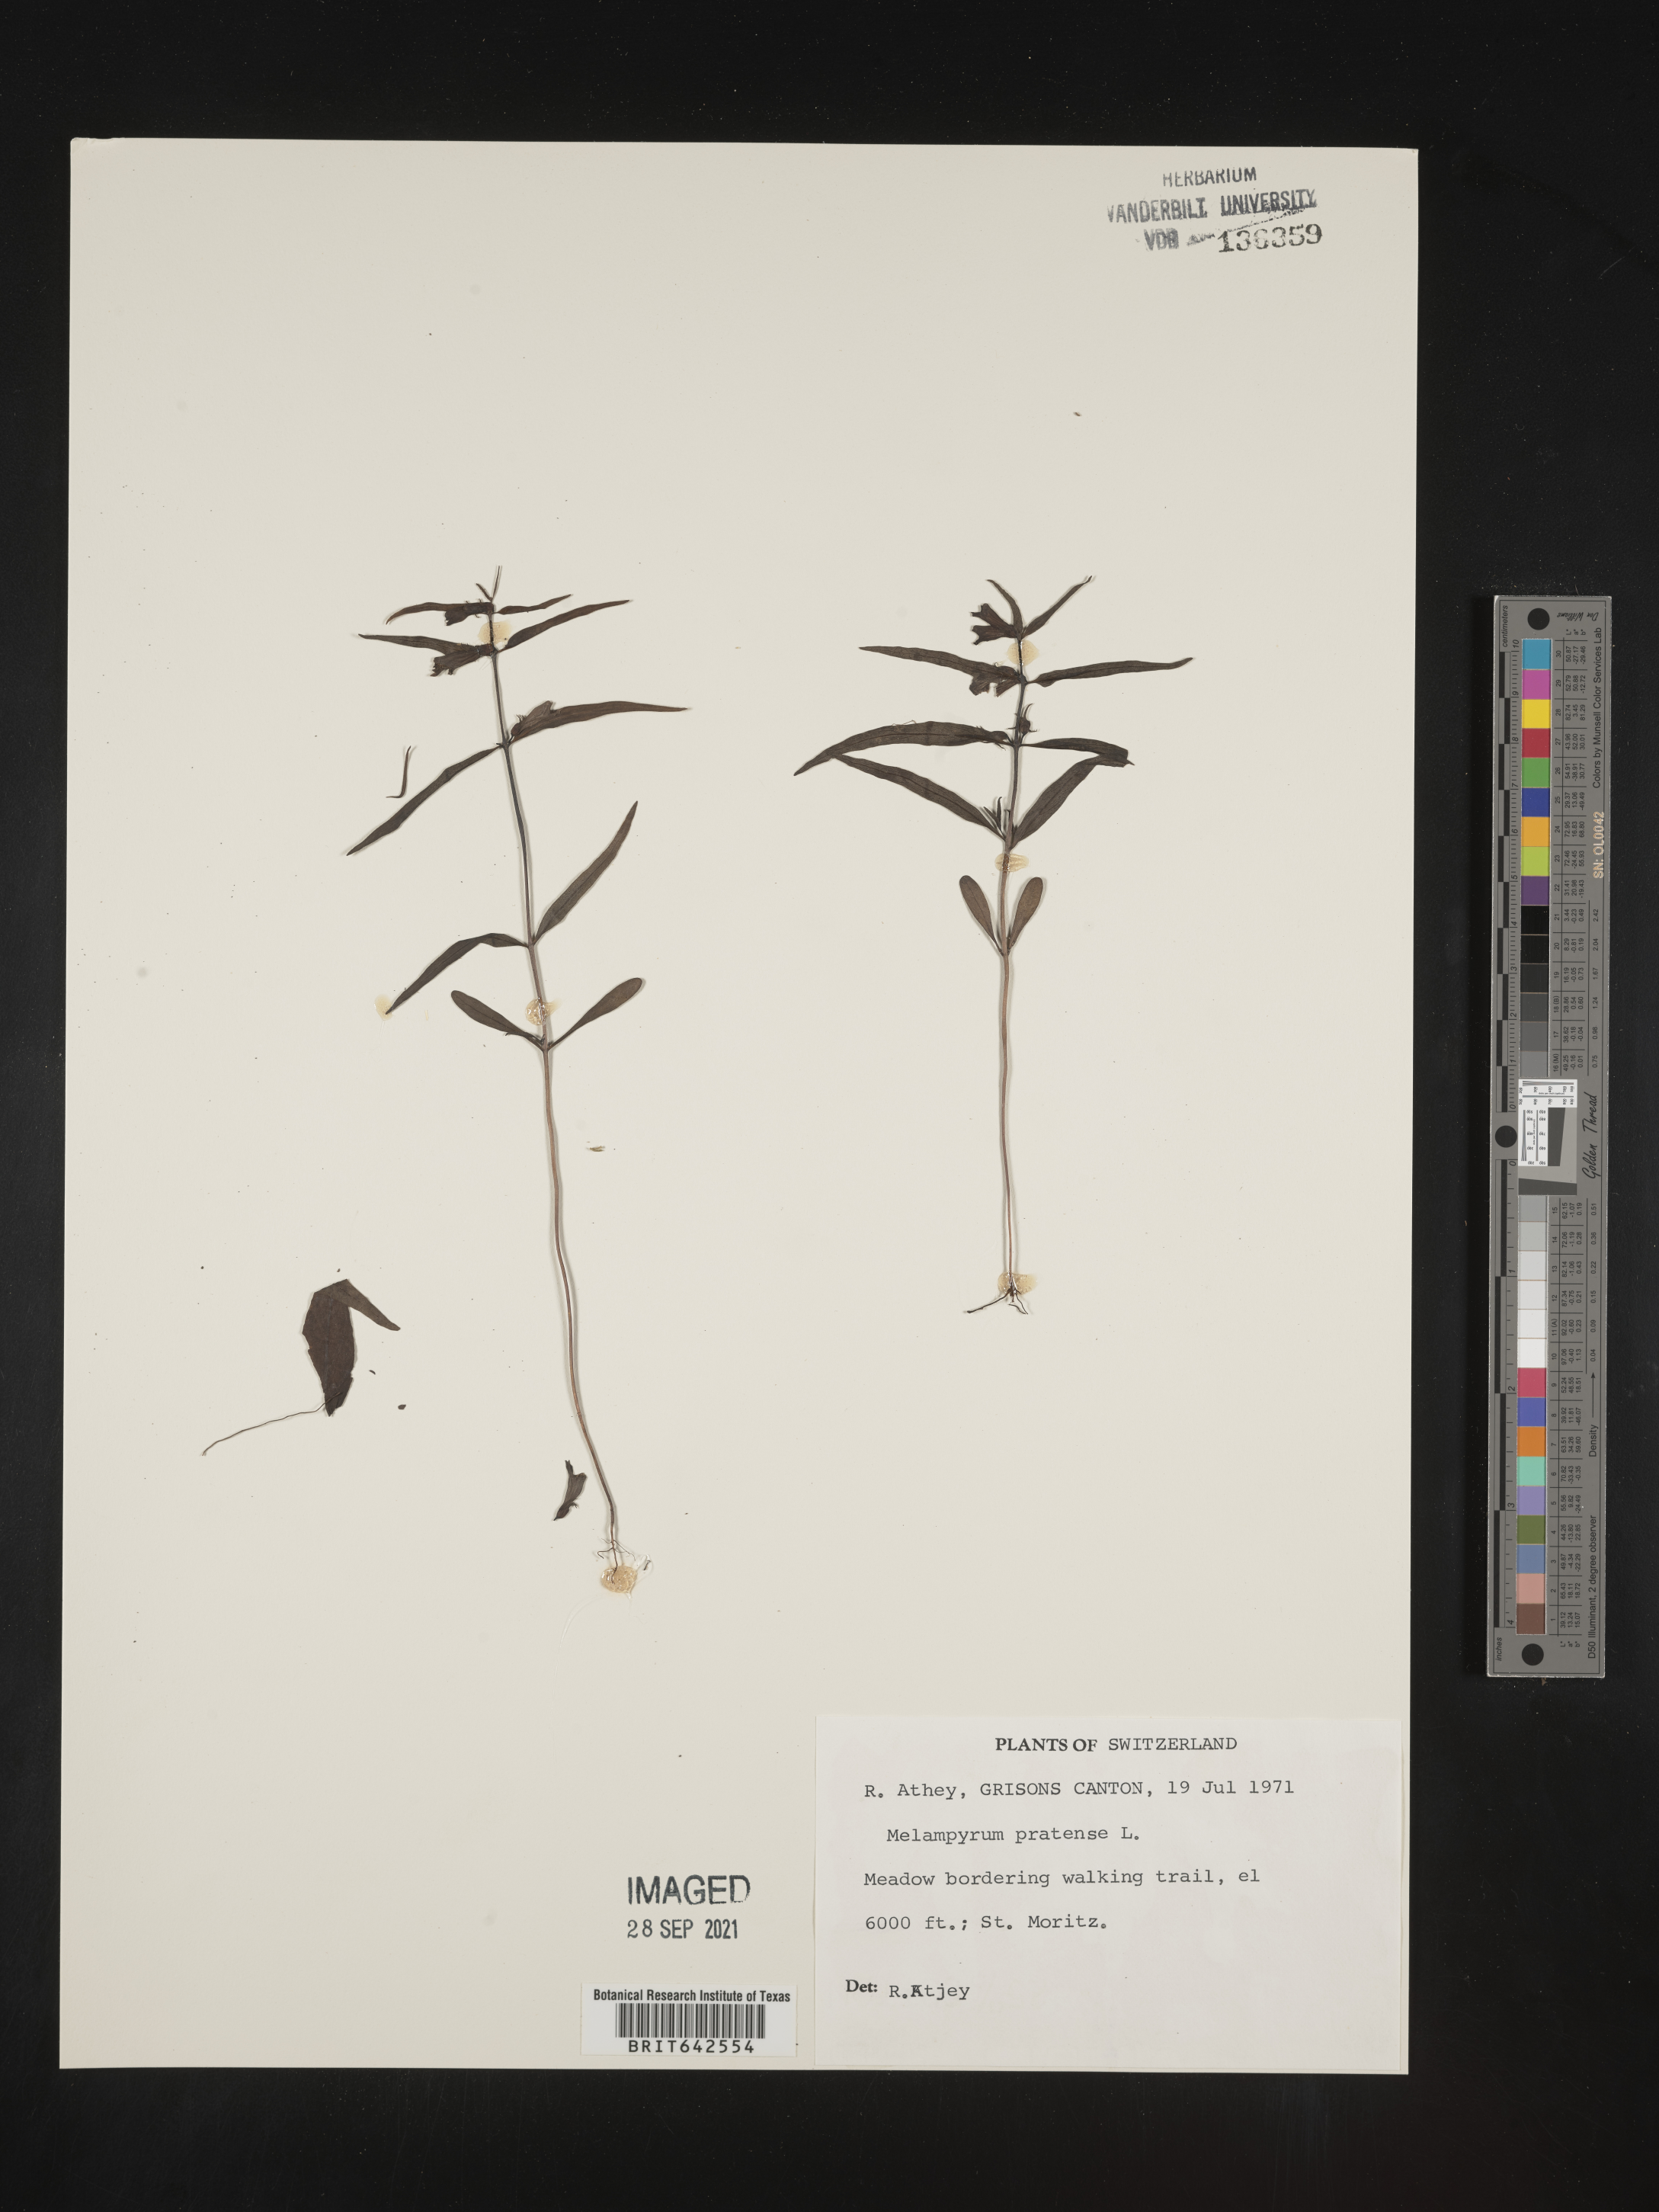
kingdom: Plantae
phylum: Tracheophyta
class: Magnoliopsida
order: Lamiales
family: Orobanchaceae
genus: Melampyrum
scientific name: Melampyrum
